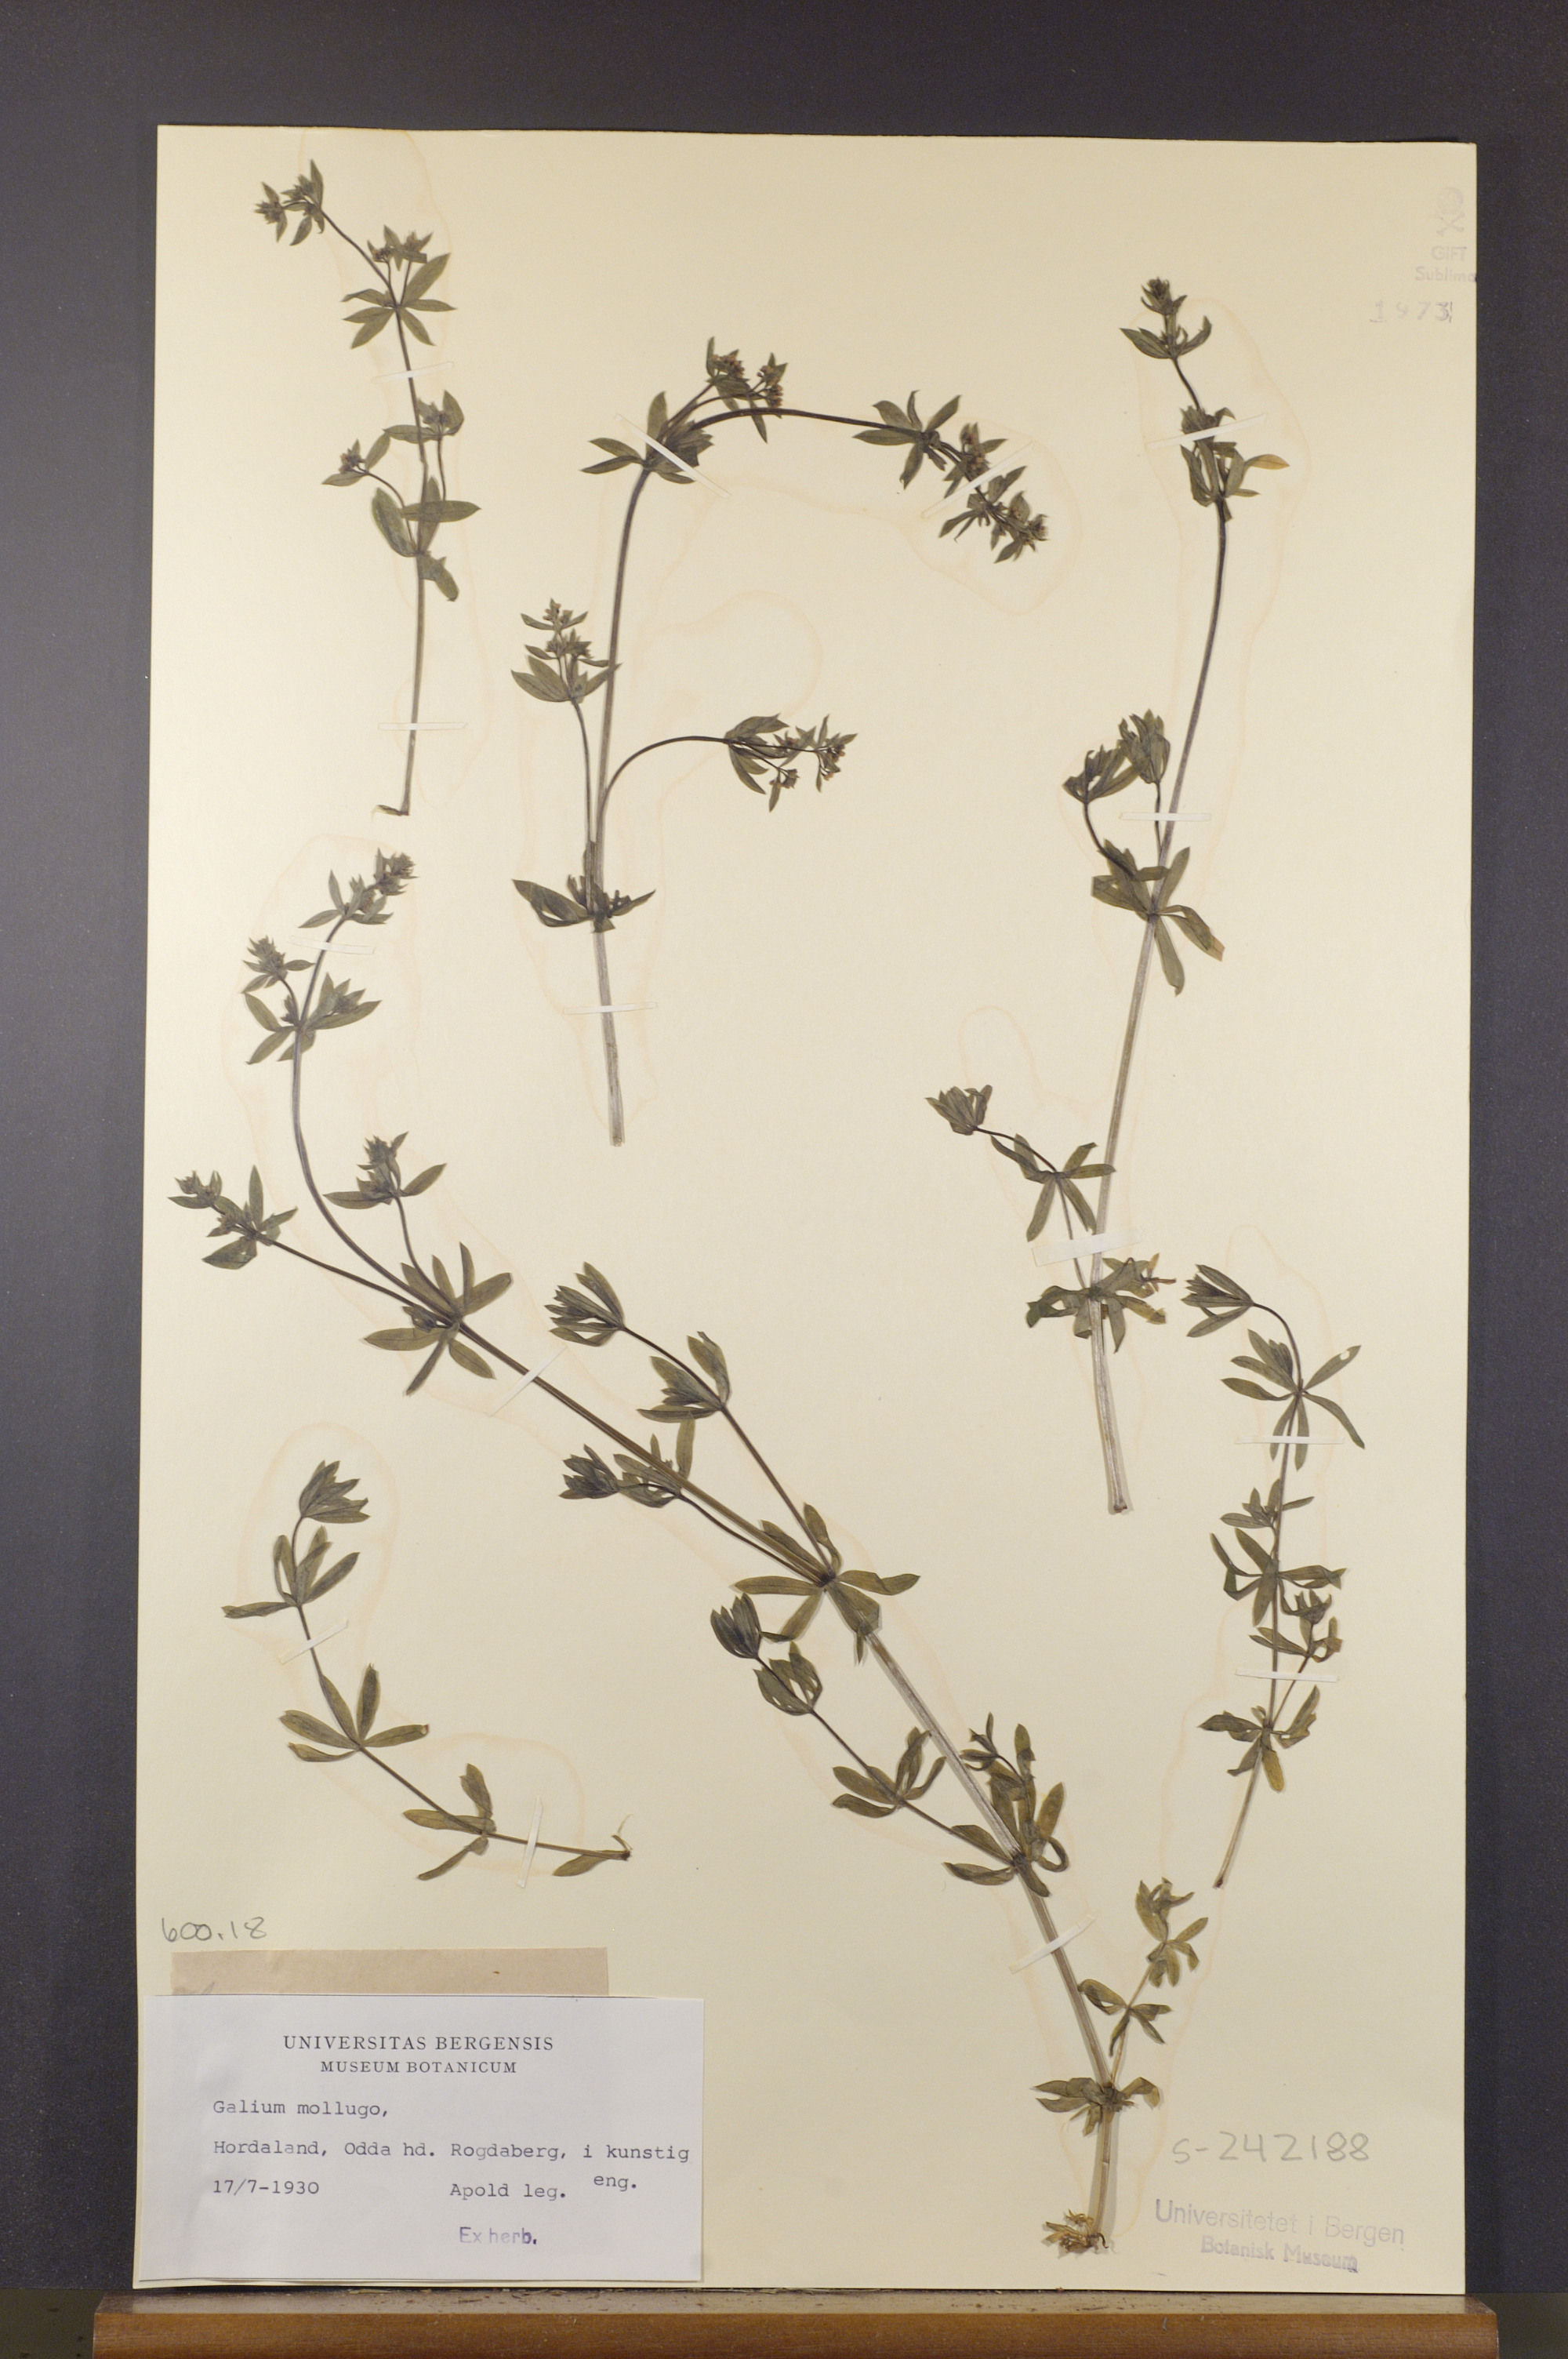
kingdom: Plantae
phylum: Tracheophyta
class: Magnoliopsida
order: Gentianales
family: Rubiaceae
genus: Galium
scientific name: Galium mollugo
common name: Hedge bedstraw
